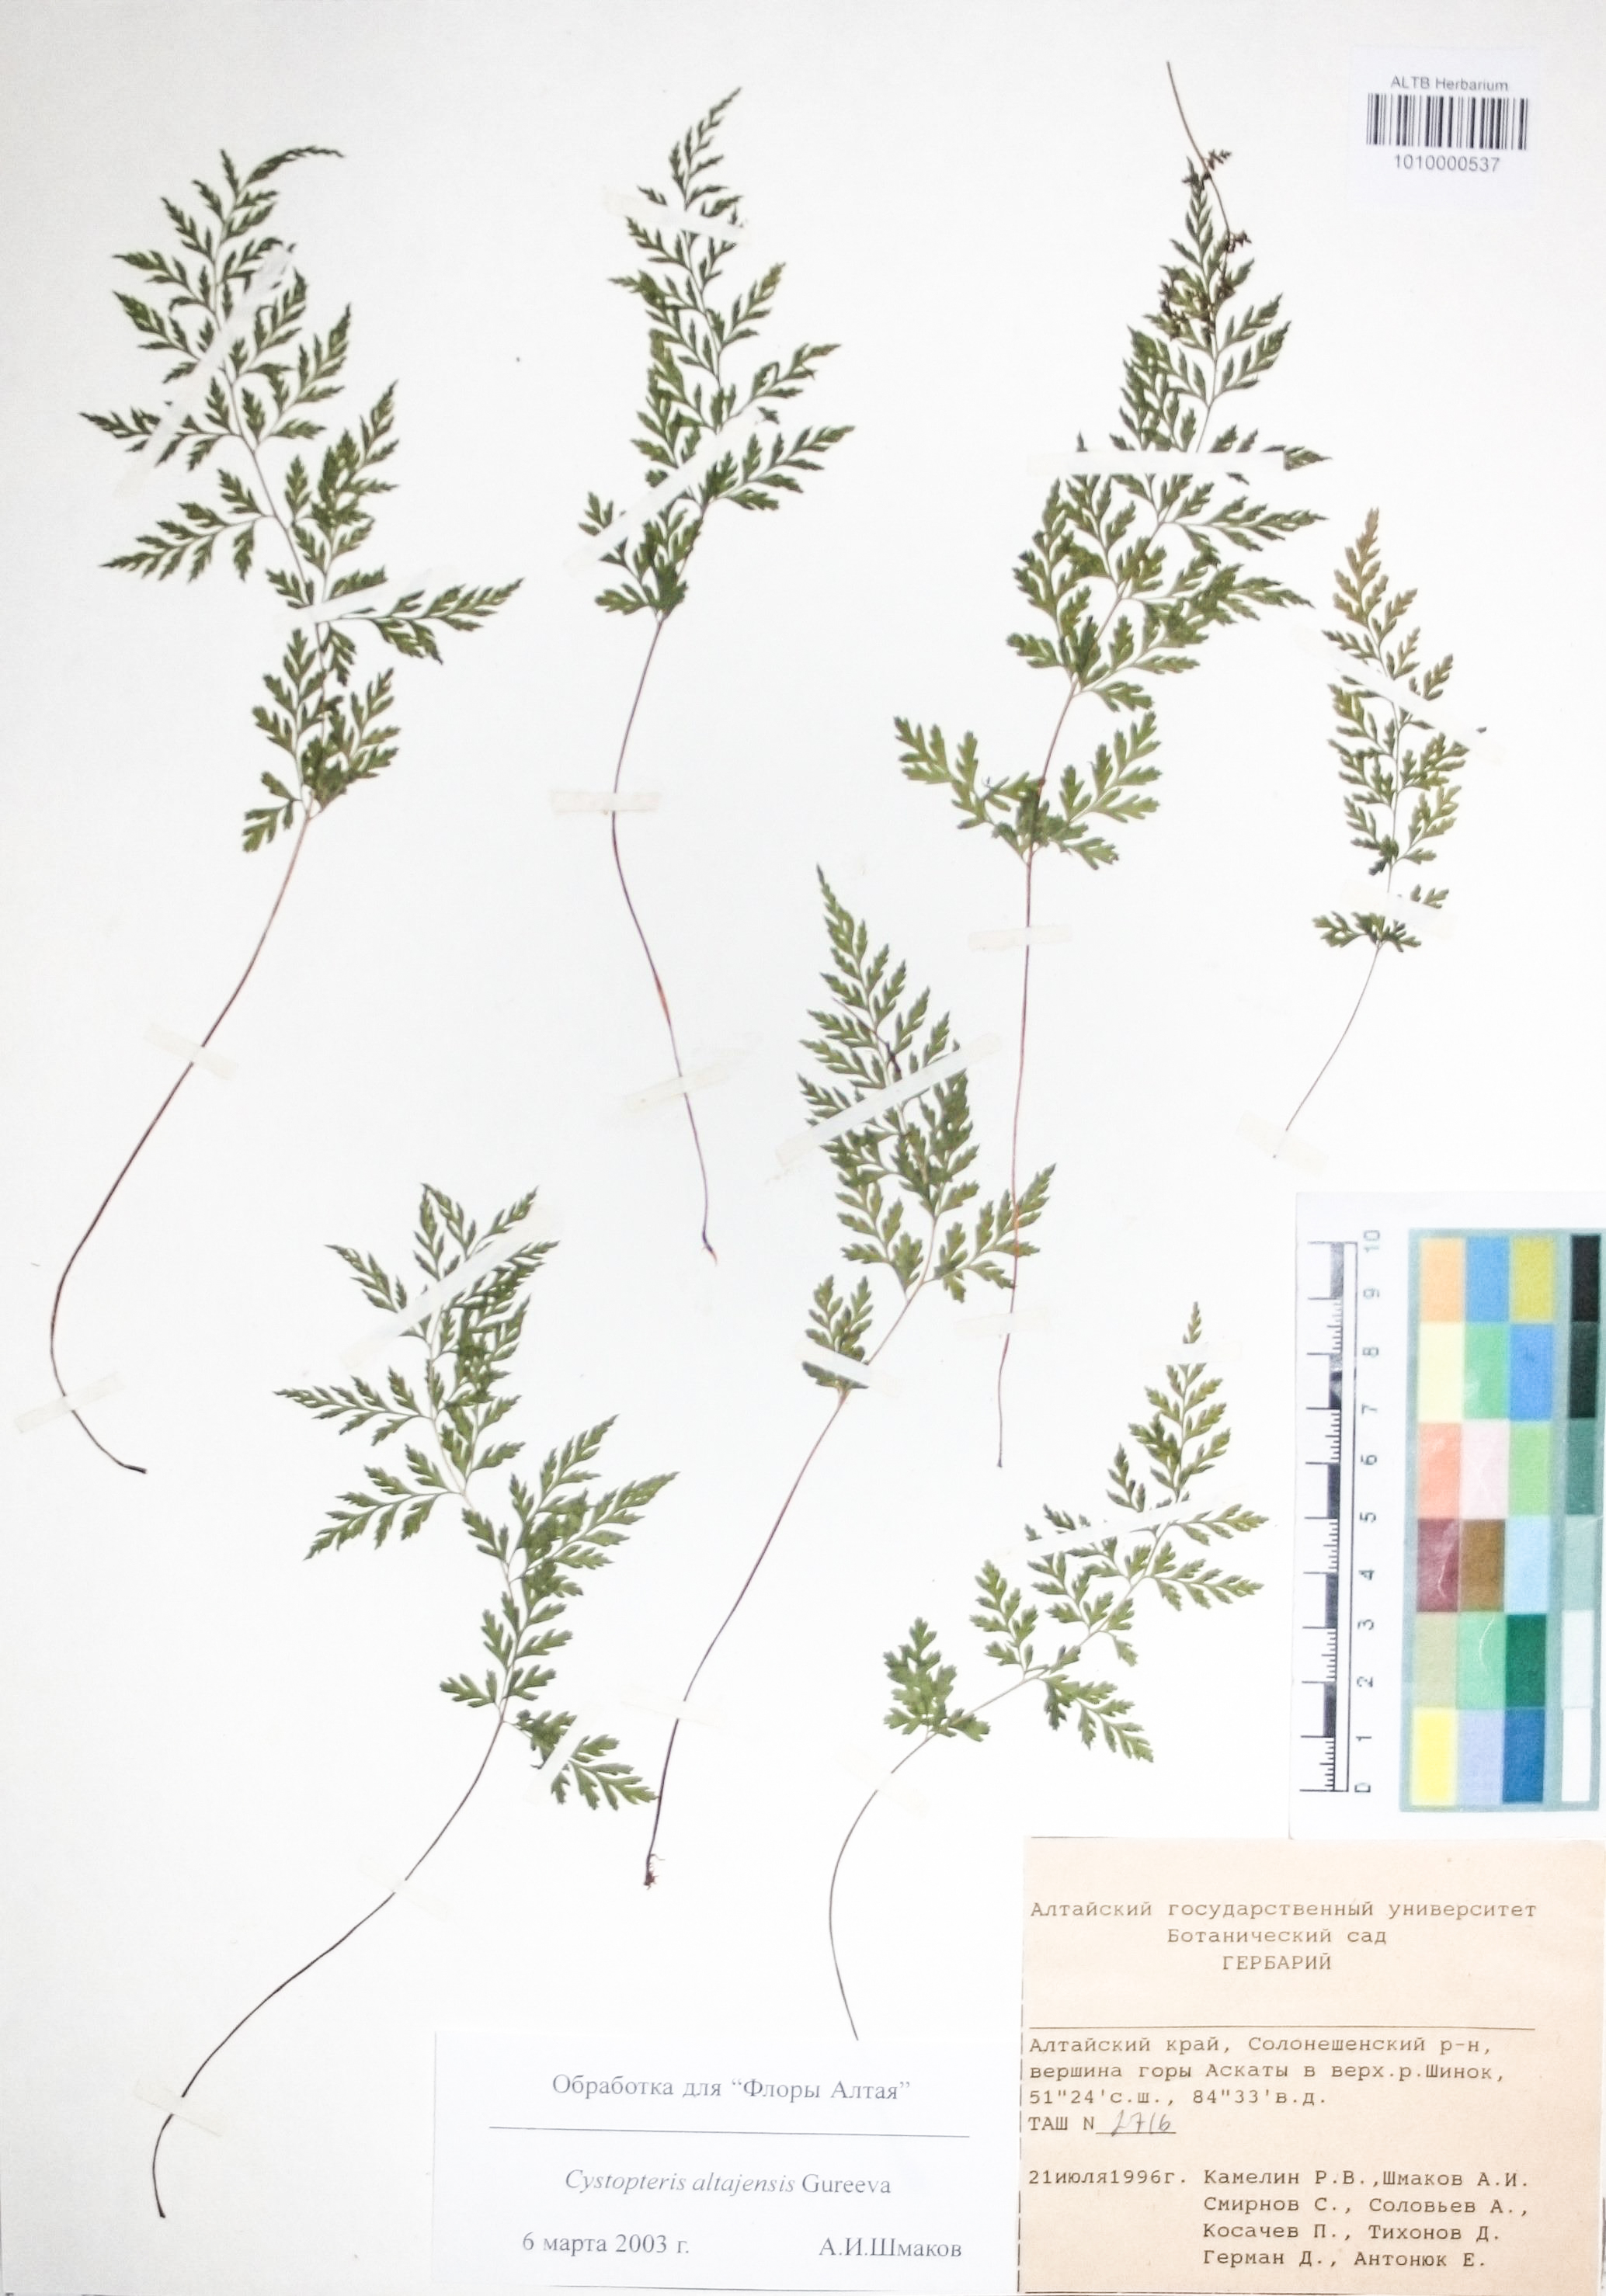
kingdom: Plantae
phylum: Tracheophyta
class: Polypodiopsida
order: Polypodiales
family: Cystopteridaceae
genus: Cystopteris
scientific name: Cystopteris diaphana
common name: Greenish bladder-fern
